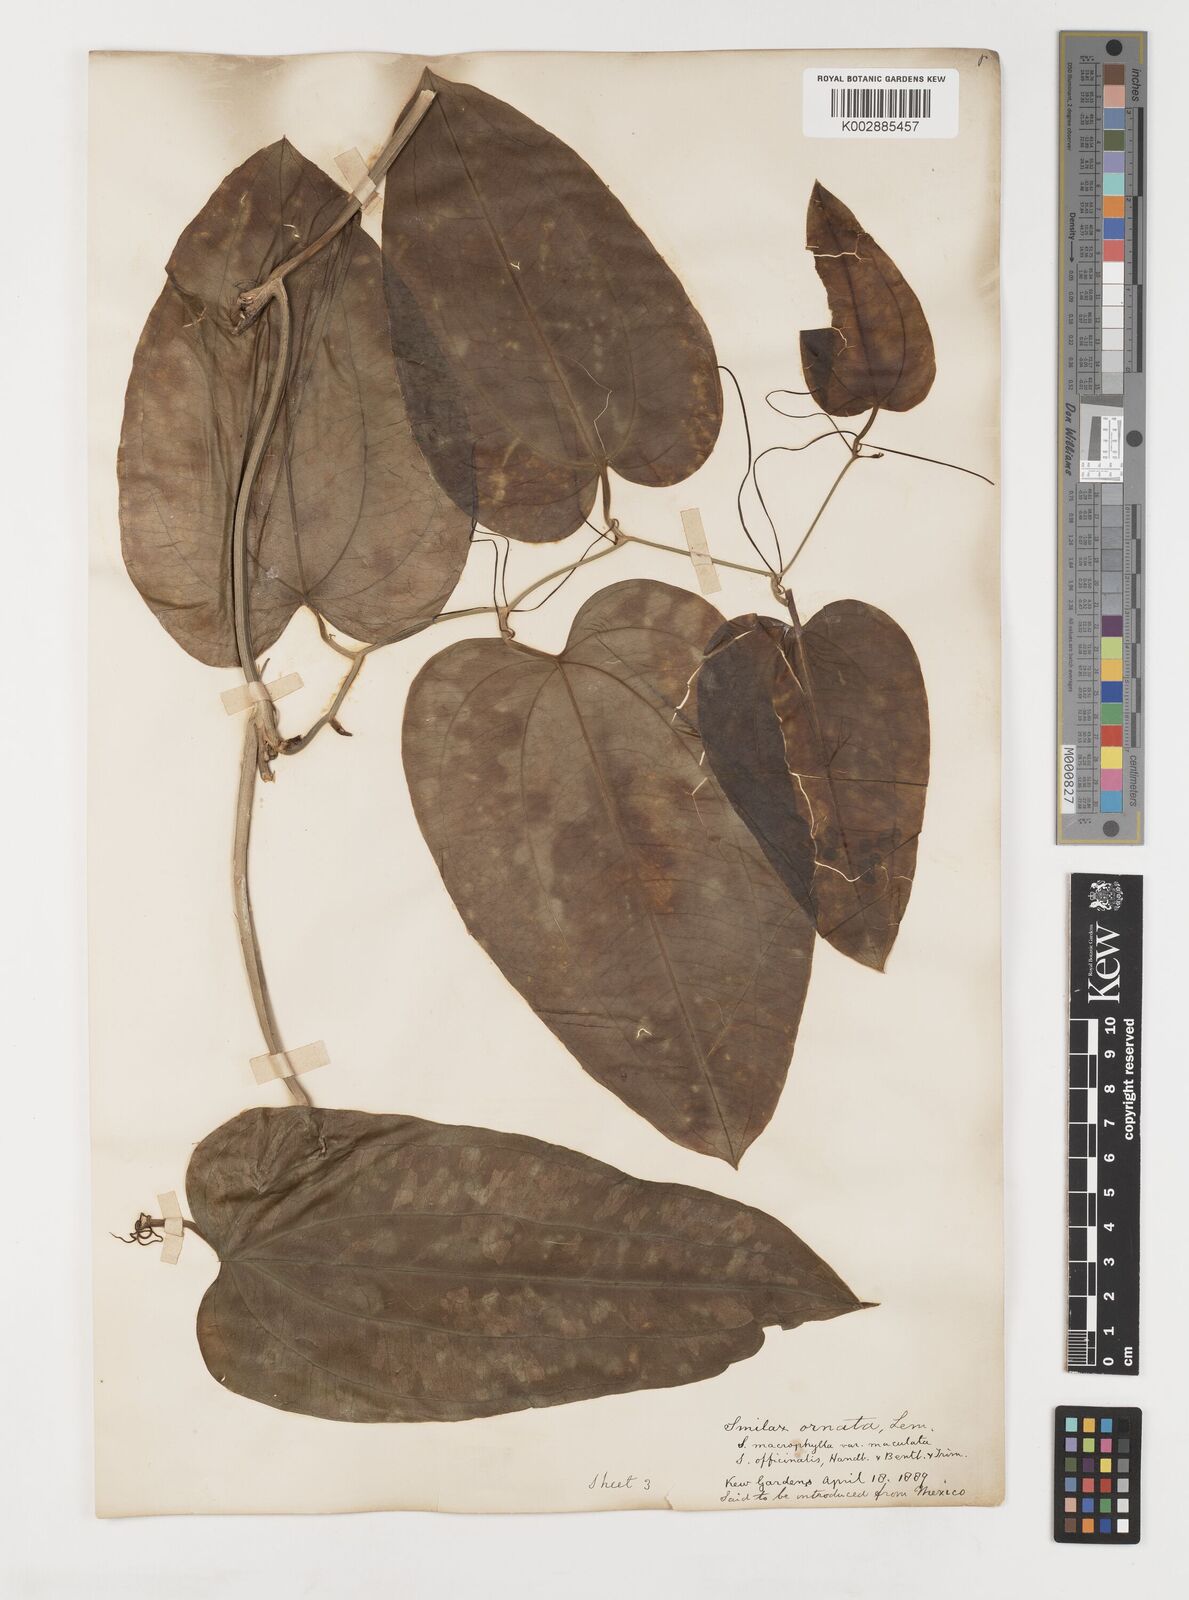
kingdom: Plantae
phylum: Tracheophyta
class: Liliopsida
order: Liliales
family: Smilacaceae
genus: Smilax
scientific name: Smilax ornata
